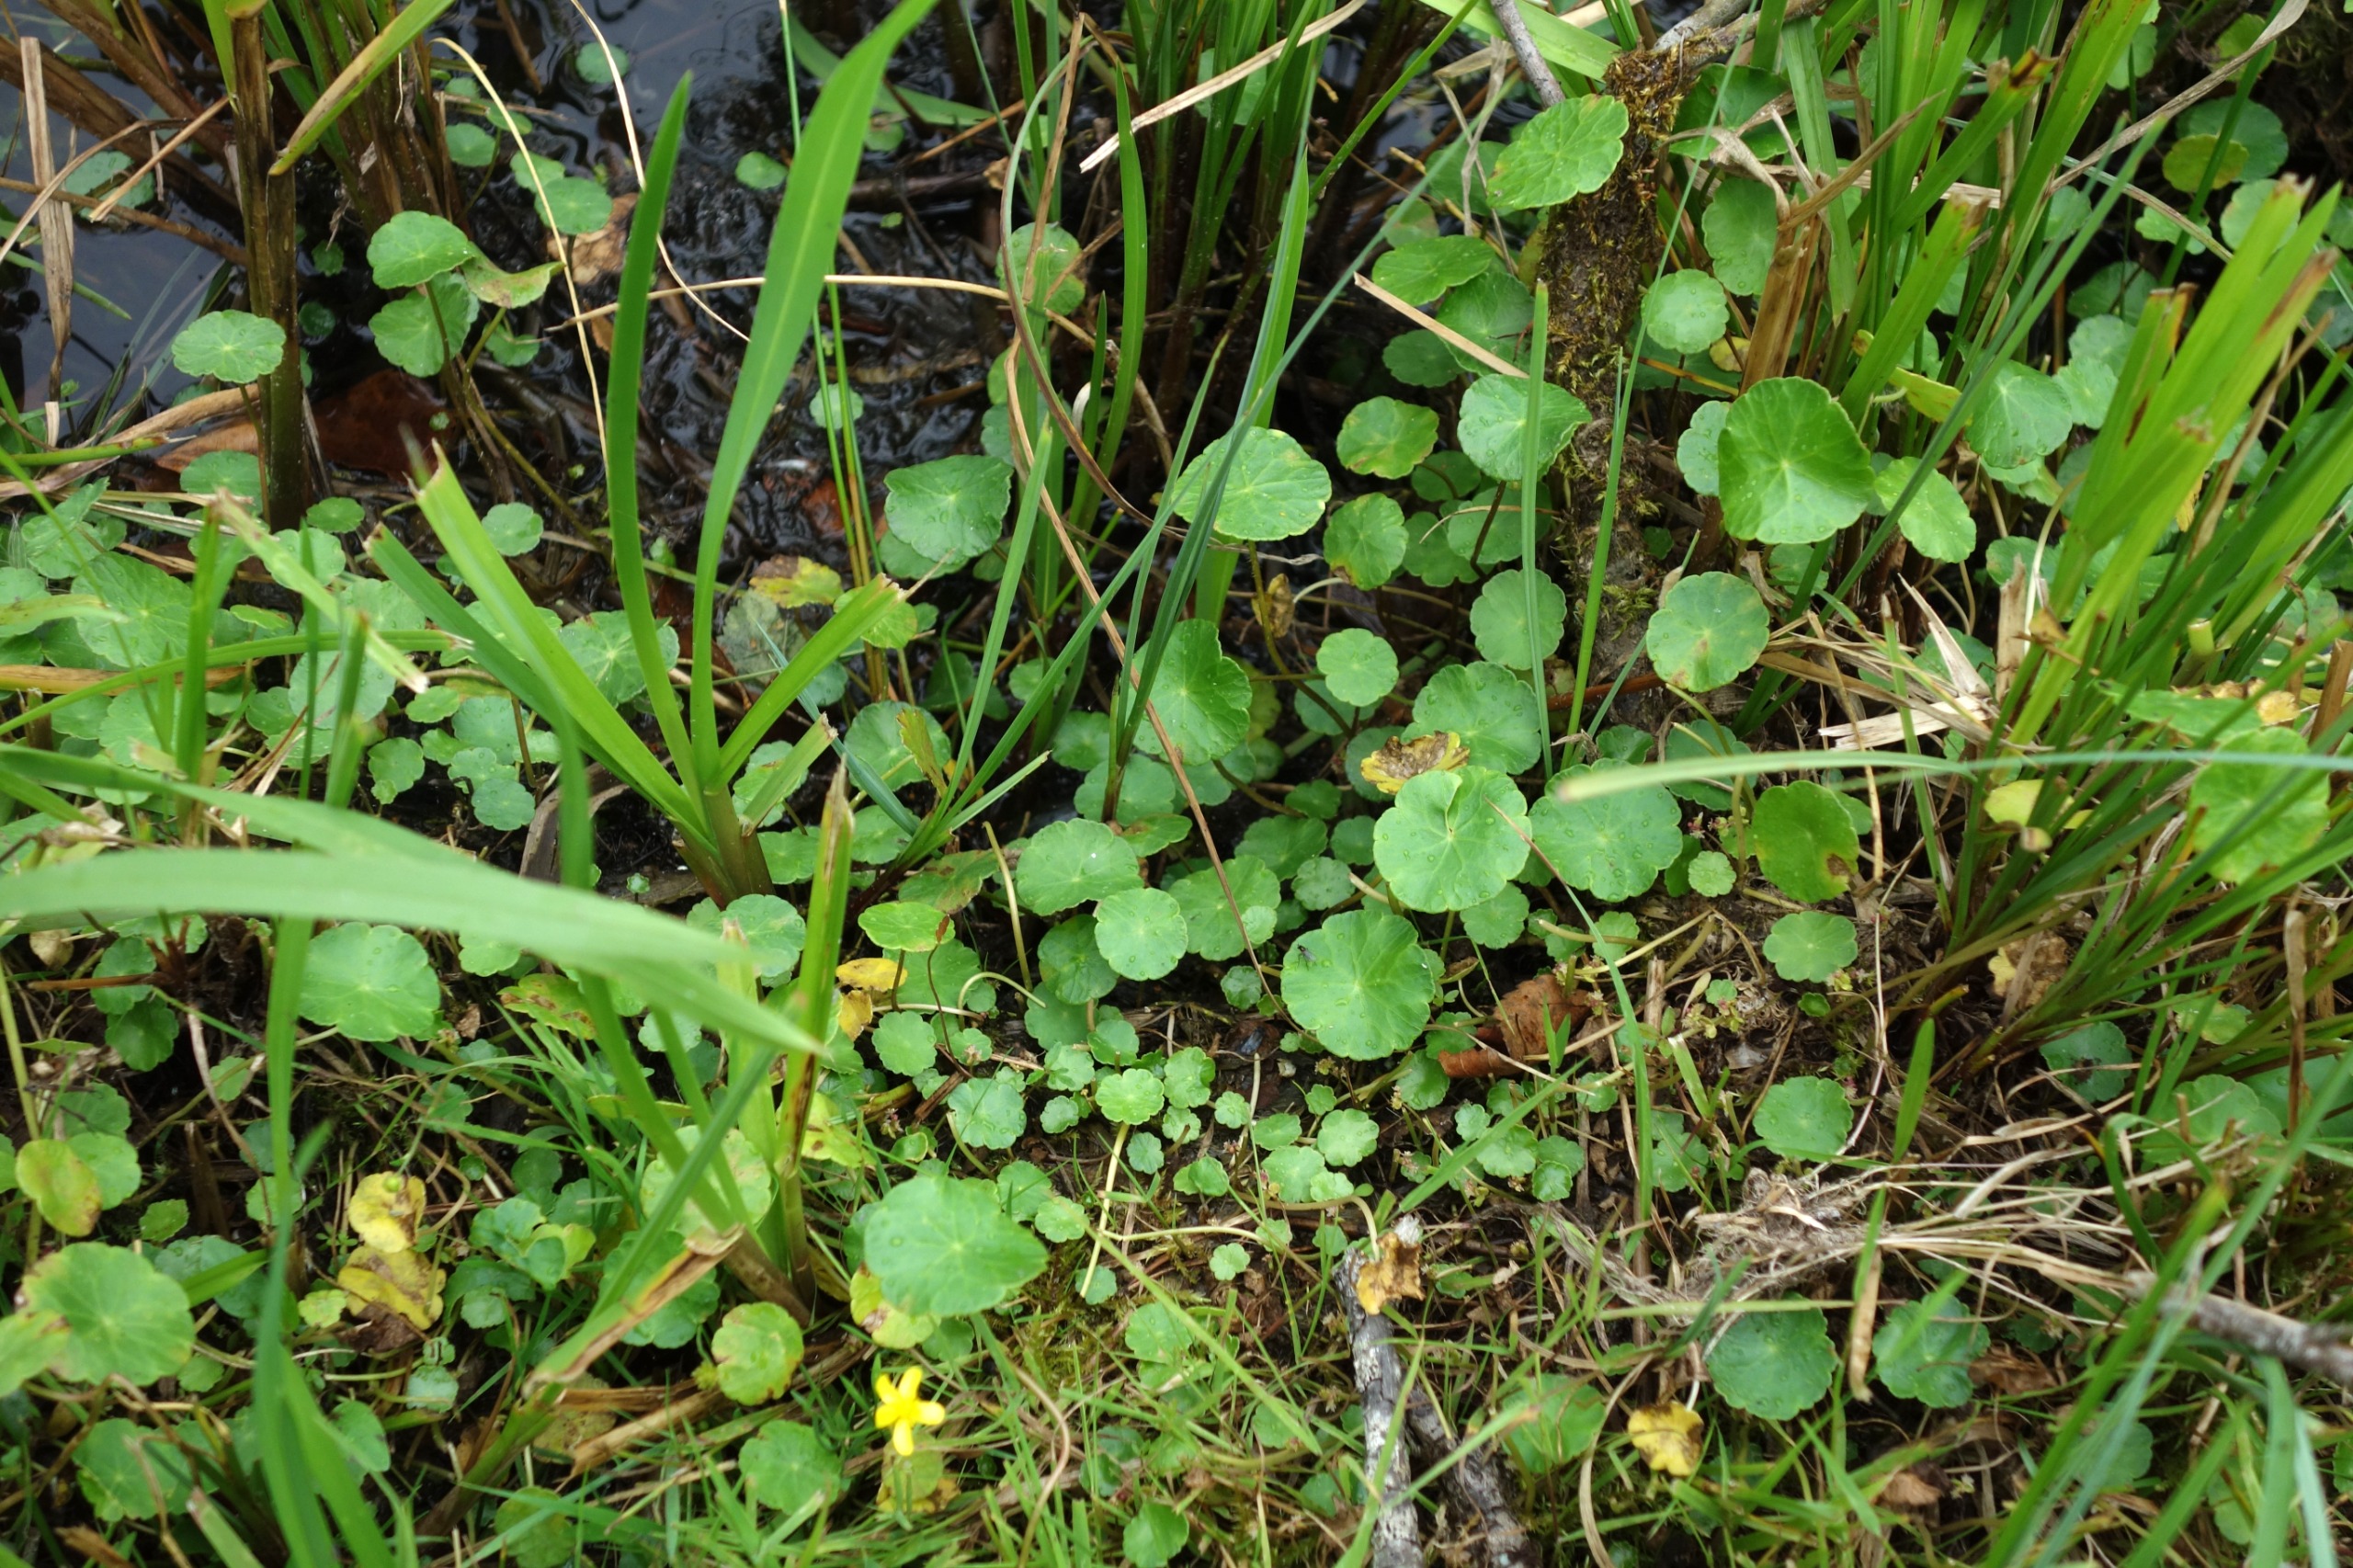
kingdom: Plantae
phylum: Tracheophyta
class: Magnoliopsida
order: Apiales
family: Araliaceae
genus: Hydrocotyle
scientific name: Hydrocotyle vulgaris
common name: Vandnavle
